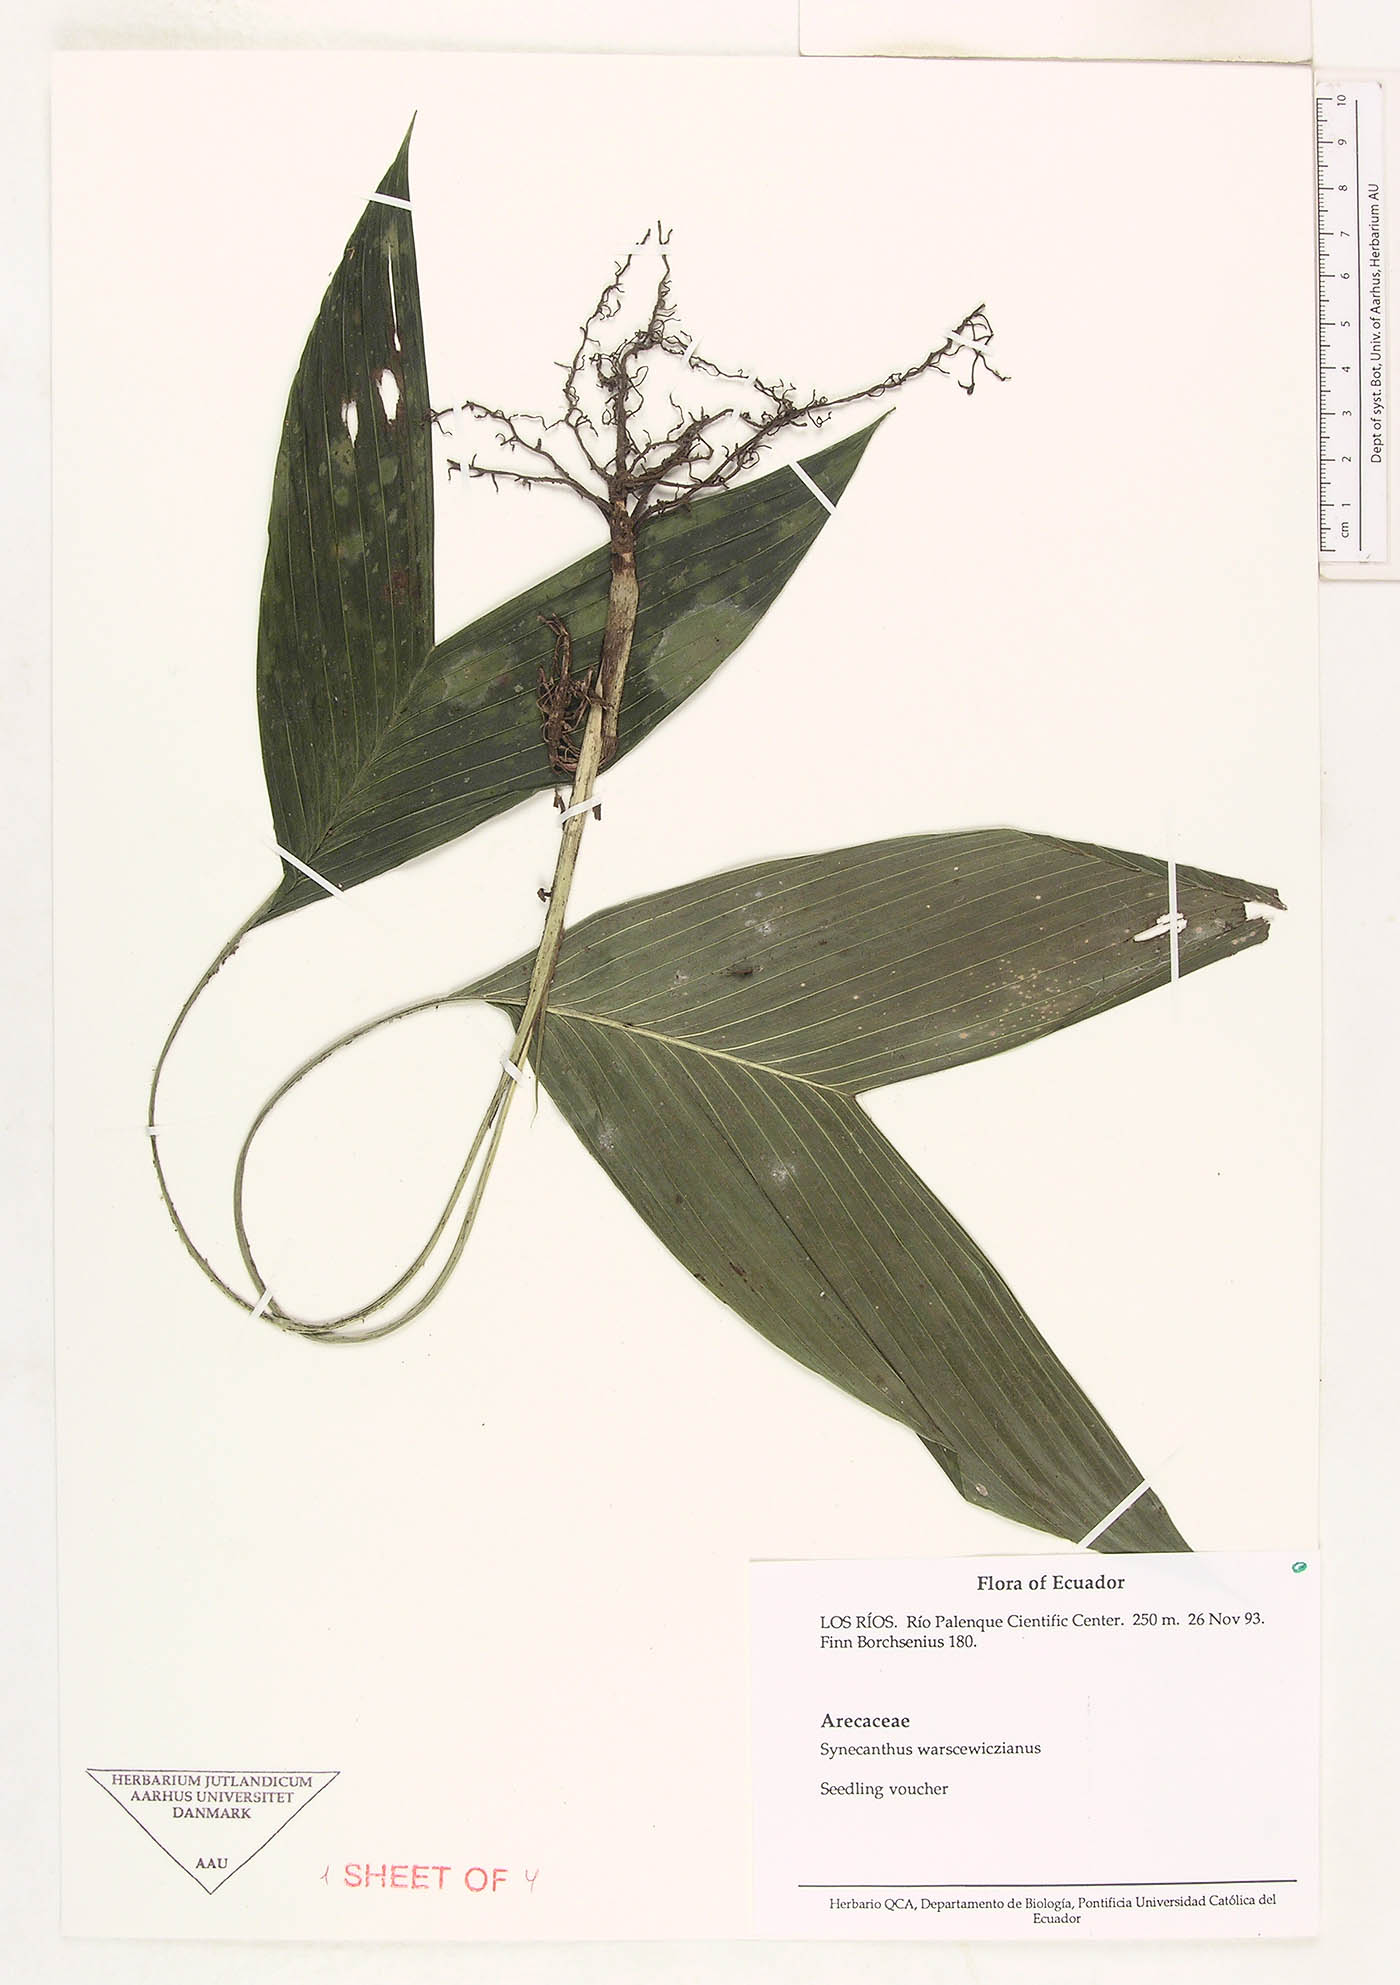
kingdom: Plantae
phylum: Tracheophyta
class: Liliopsida
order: Arecales
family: Arecaceae
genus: Synechanthus
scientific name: Synechanthus warscewiczianus
